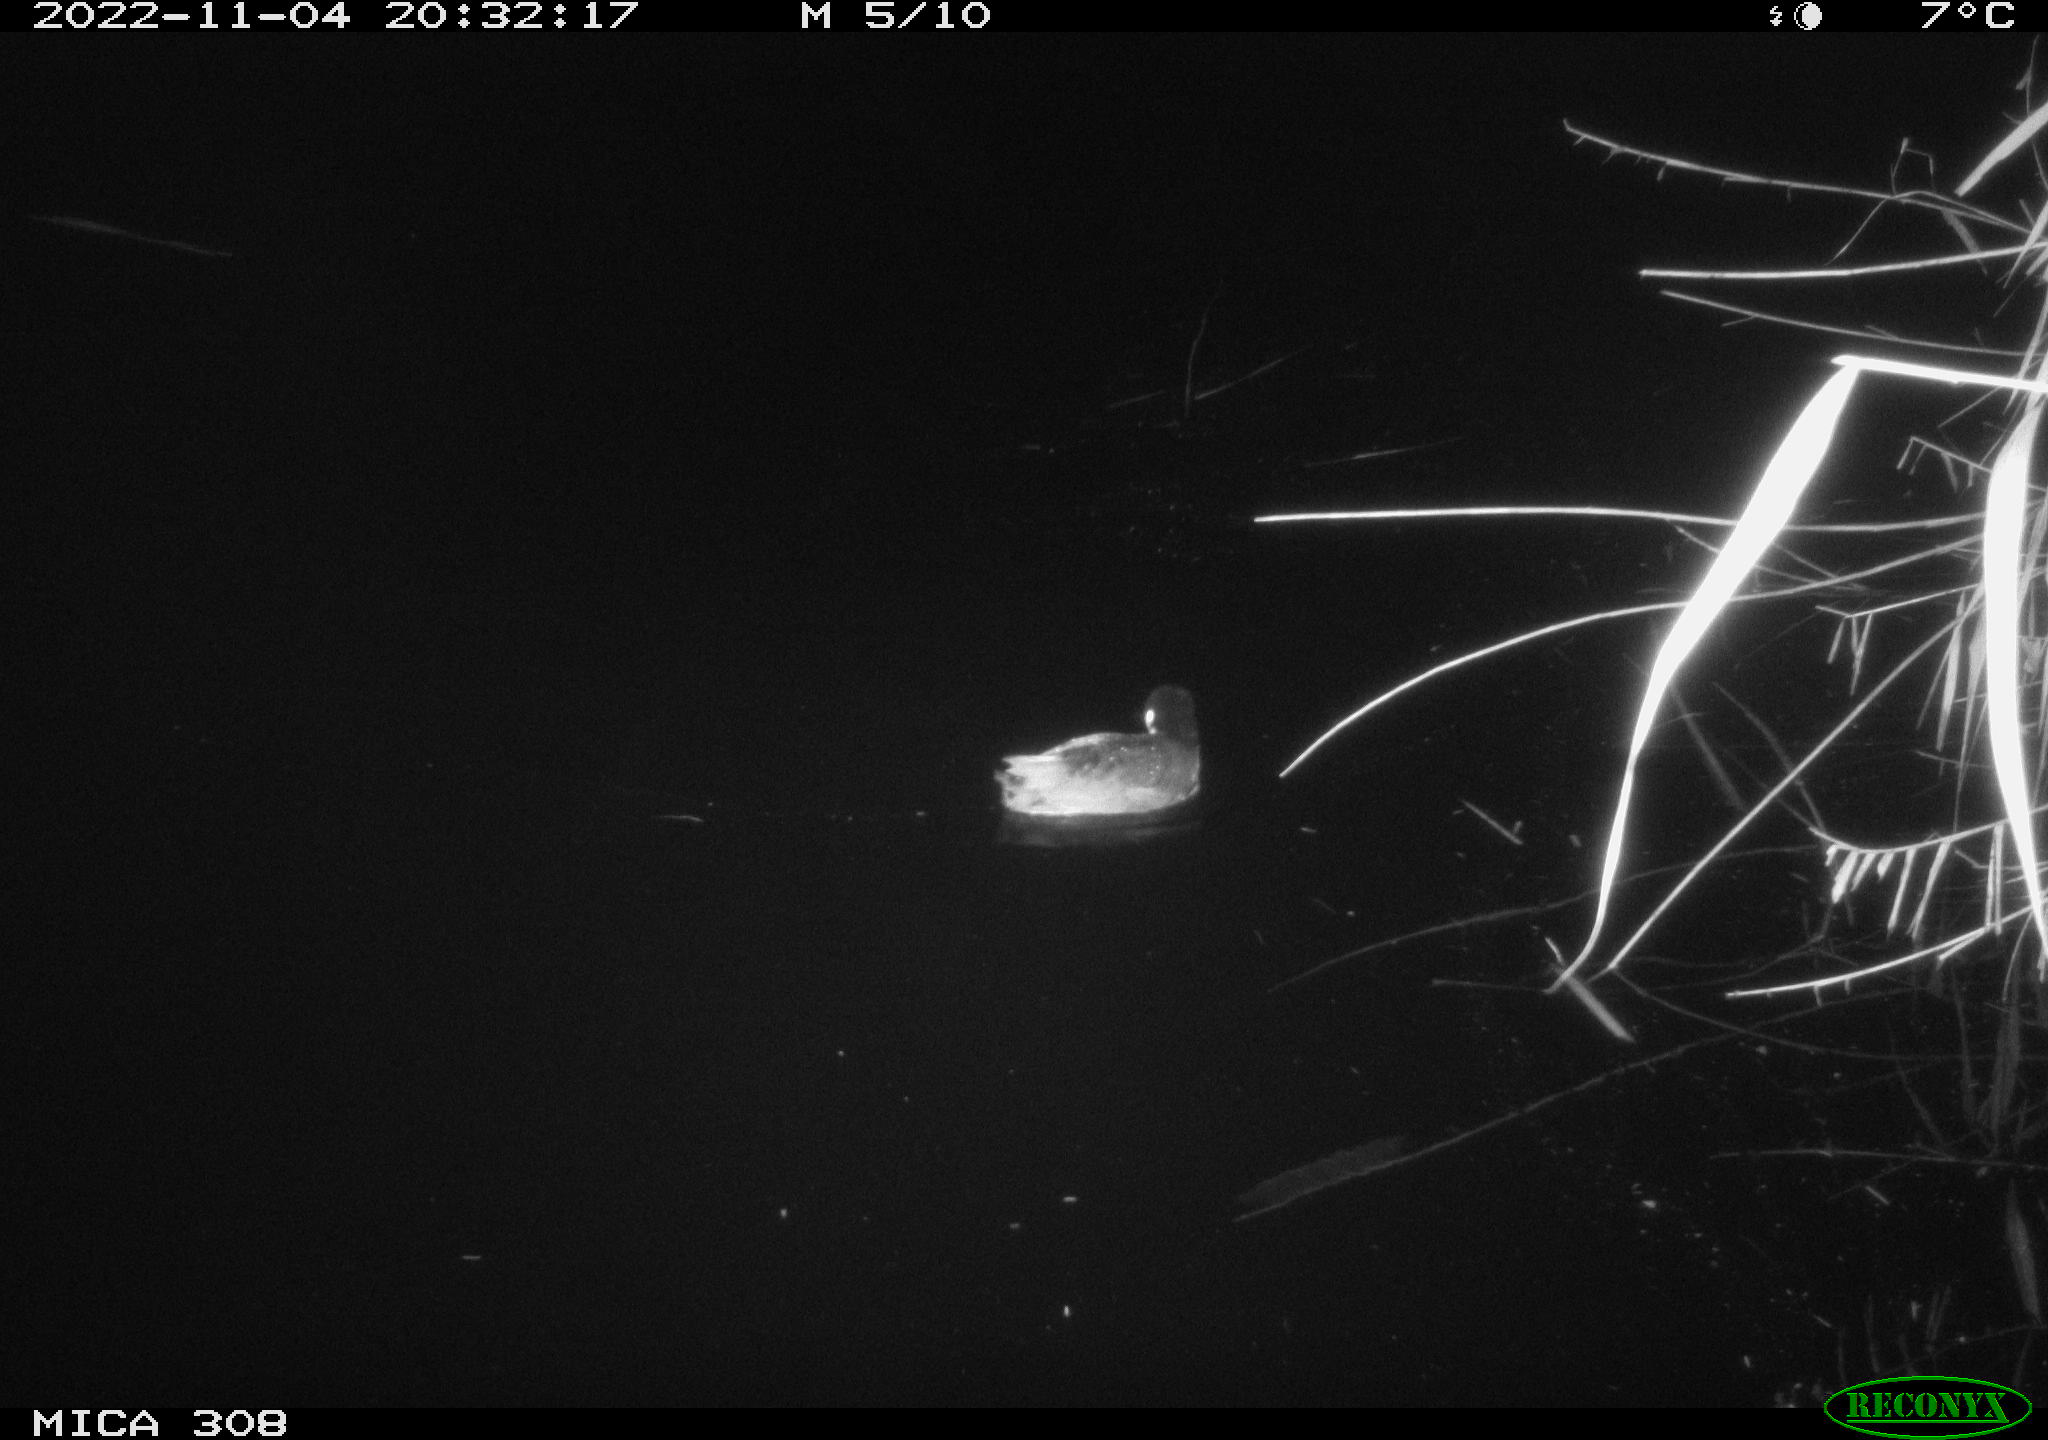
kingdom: Animalia
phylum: Chordata
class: Aves
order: Gruiformes
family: Rallidae
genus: Fulica
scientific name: Fulica atra
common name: Eurasian coot
